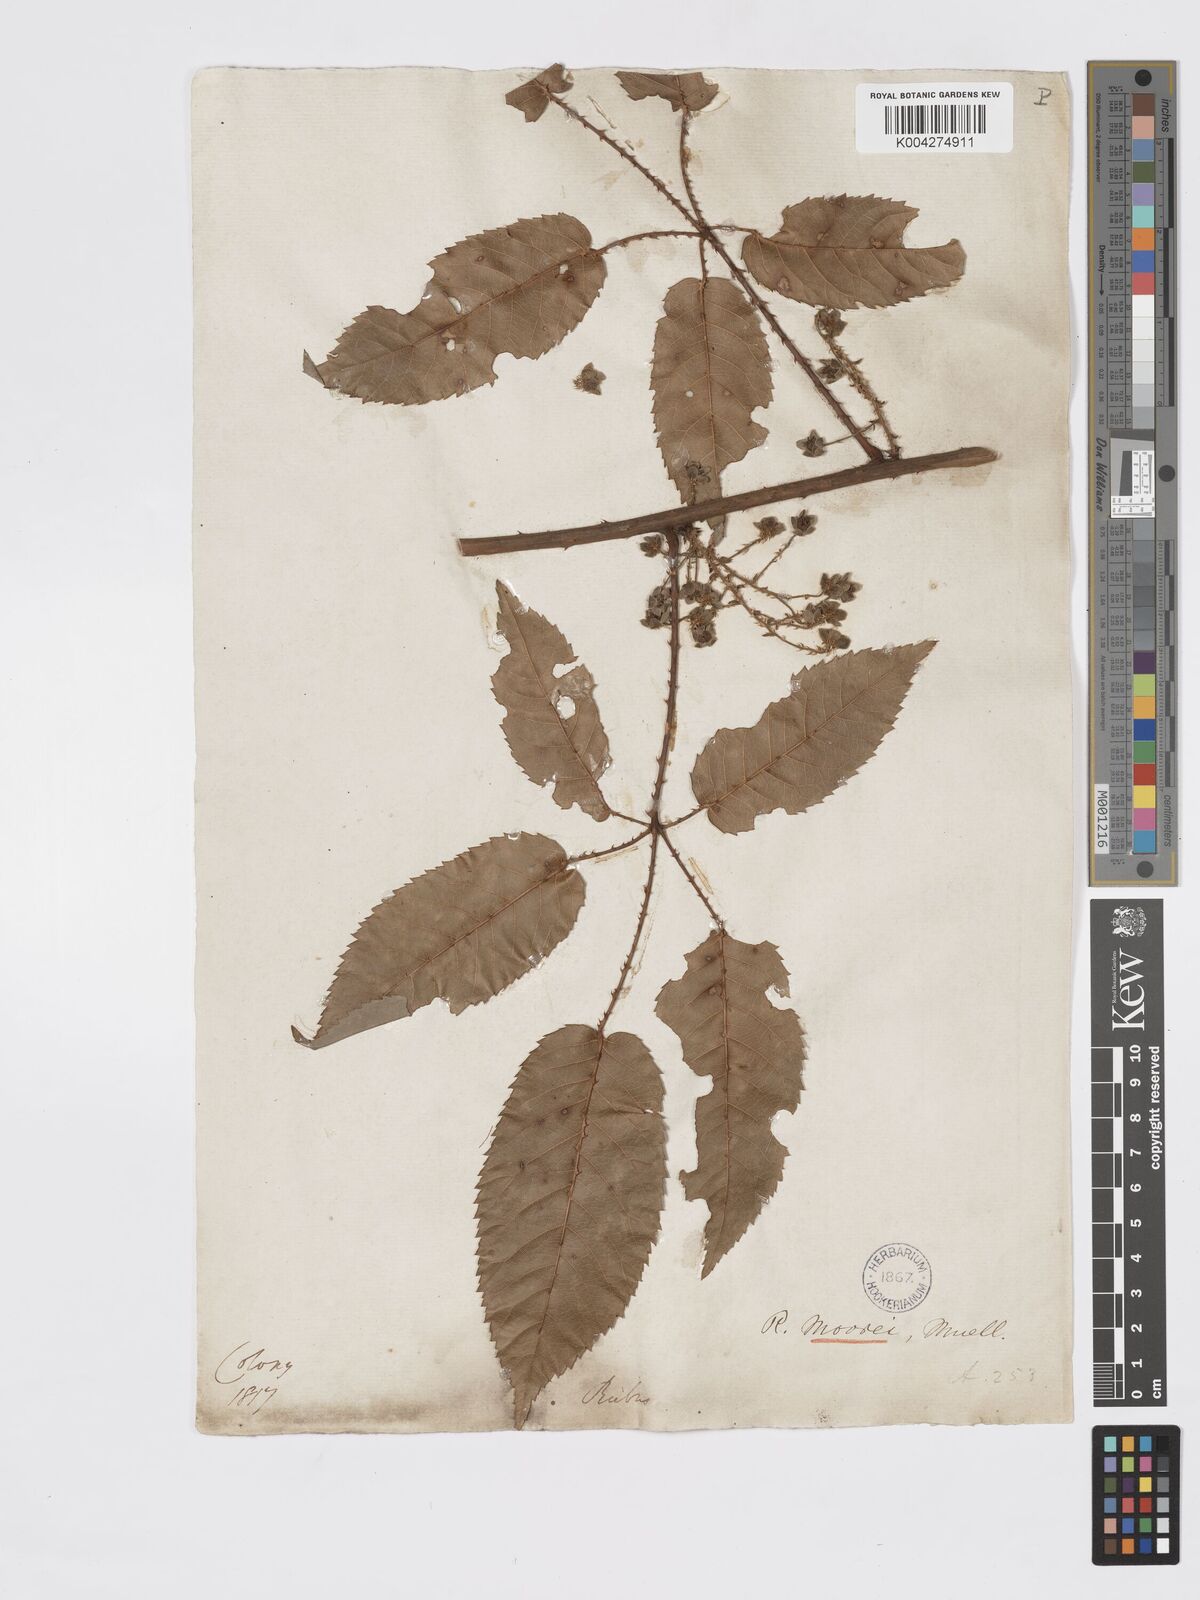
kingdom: Plantae
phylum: Tracheophyta
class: Magnoliopsida
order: Rosales
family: Rosaceae
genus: Rubus
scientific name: Rubus moorei
